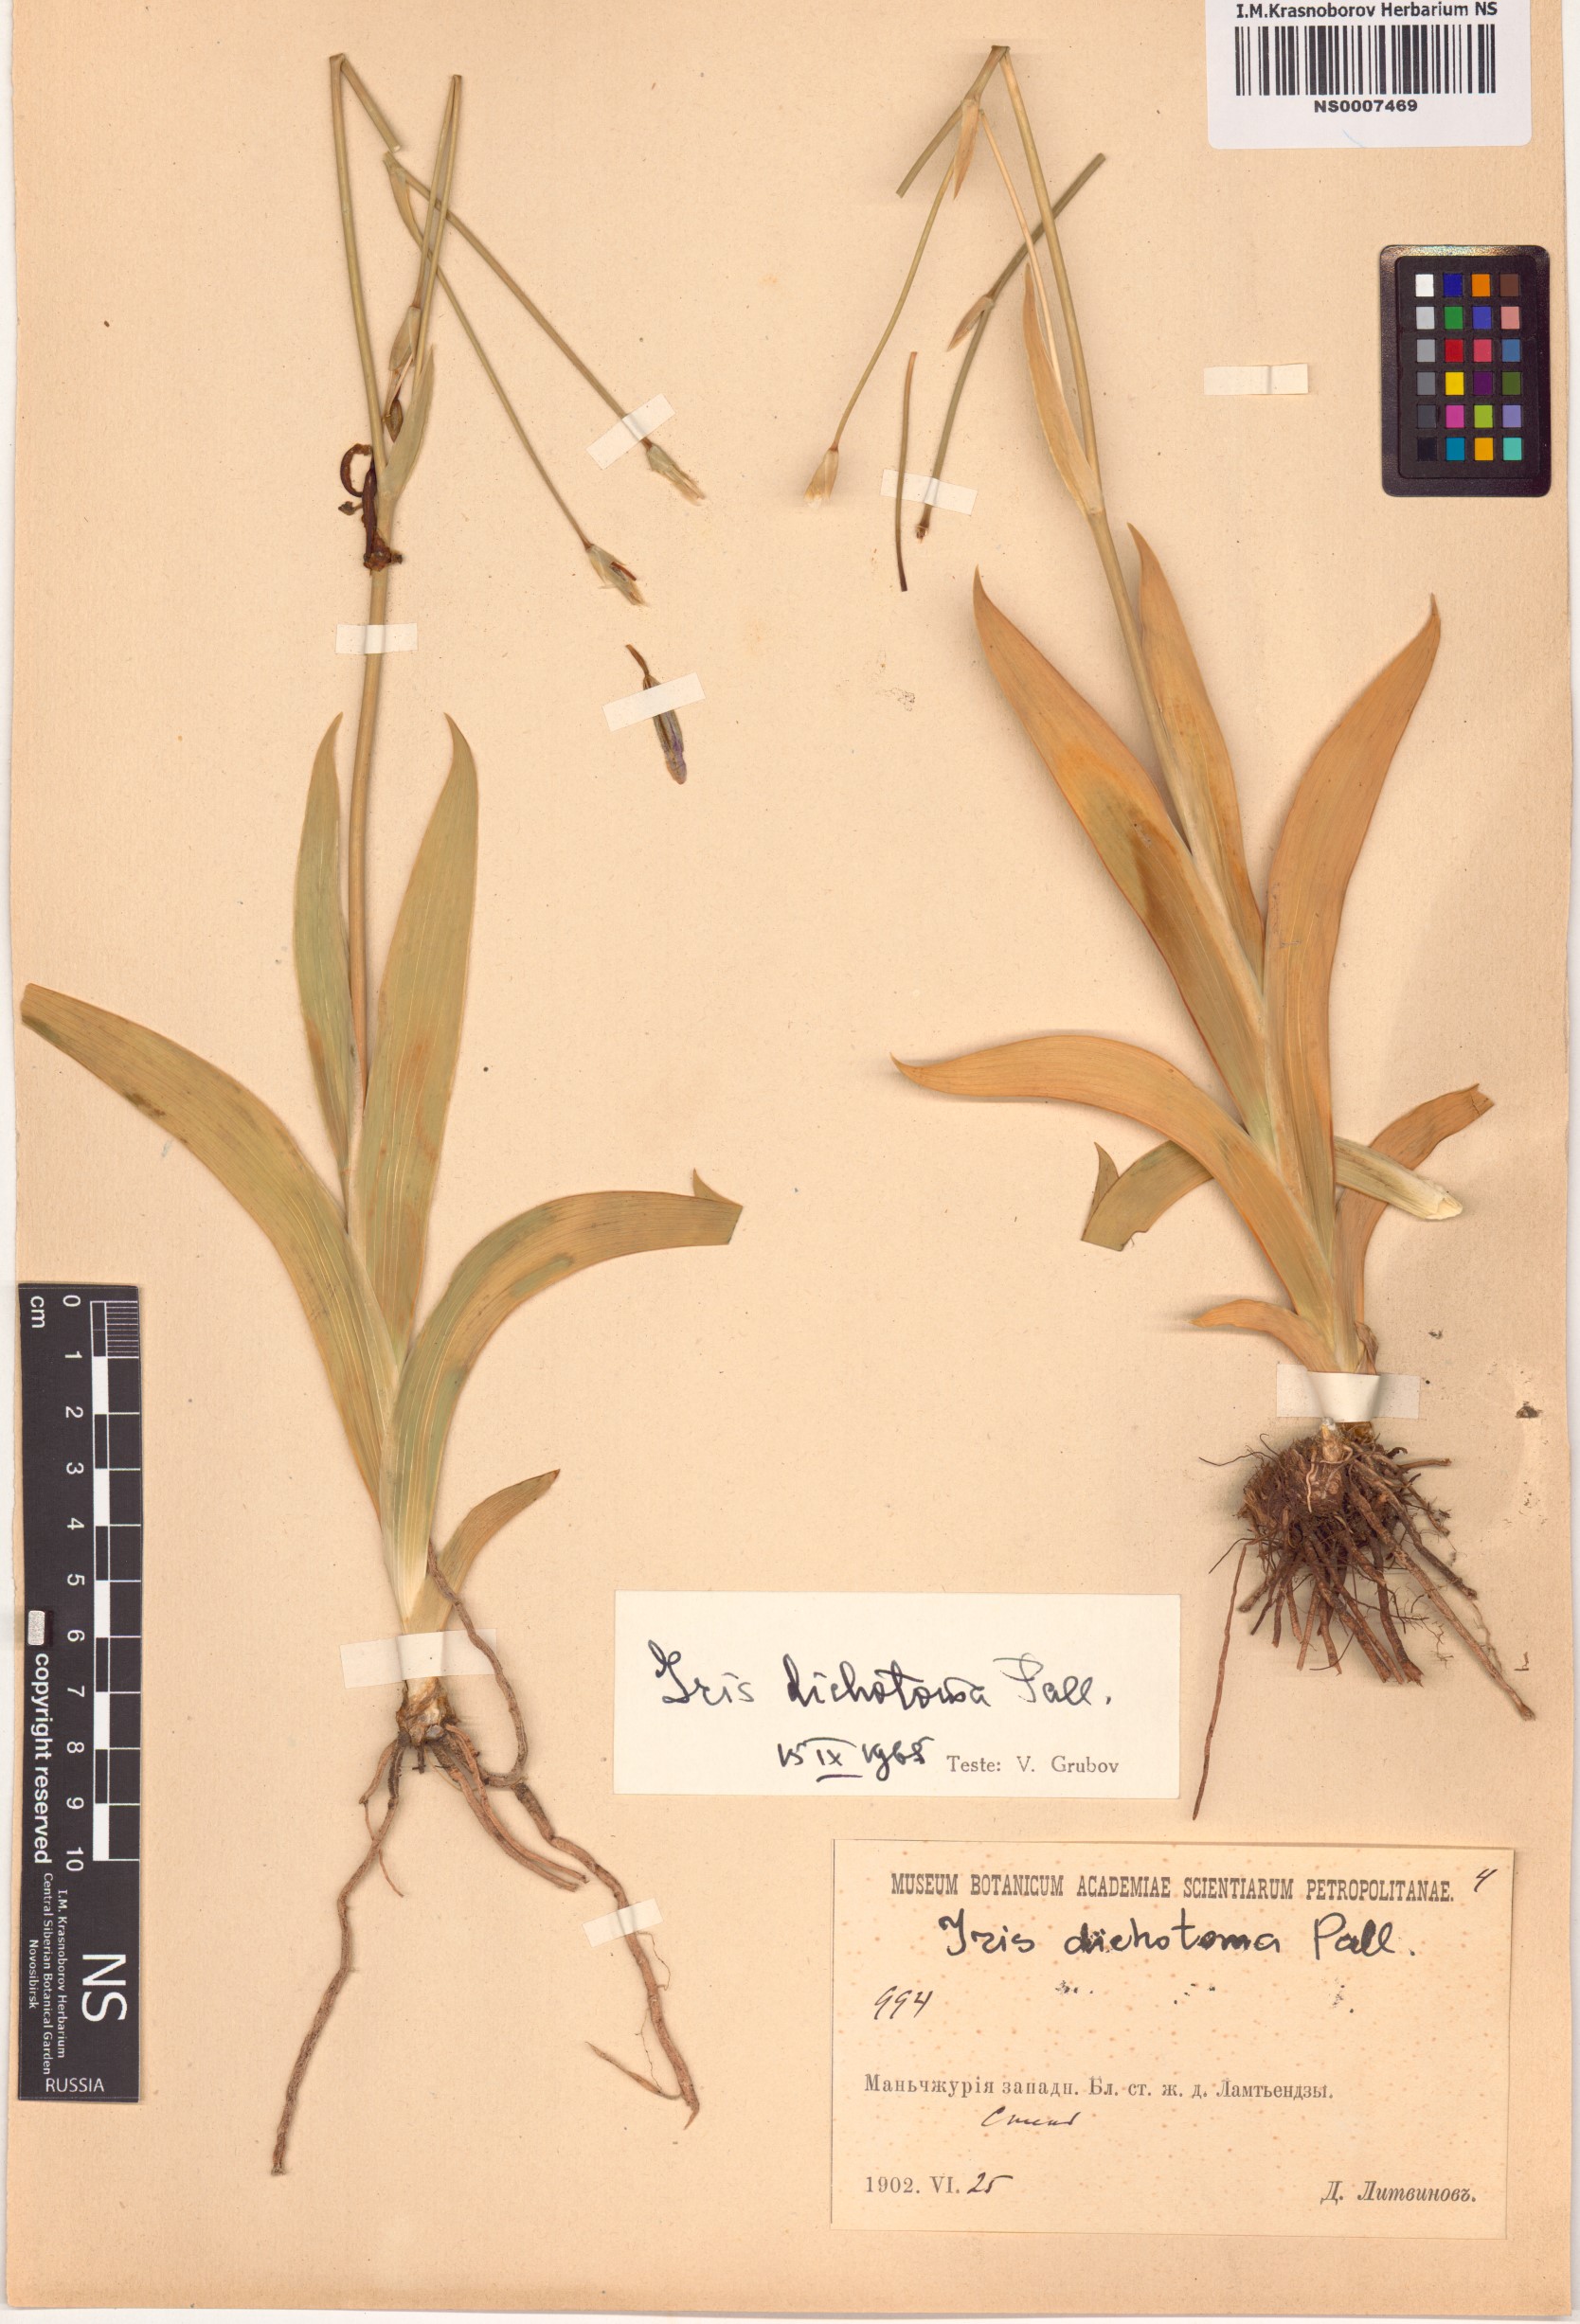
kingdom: Plantae
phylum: Tracheophyta
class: Liliopsida
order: Asparagales
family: Iridaceae
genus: Iris
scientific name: Iris dichotoma
